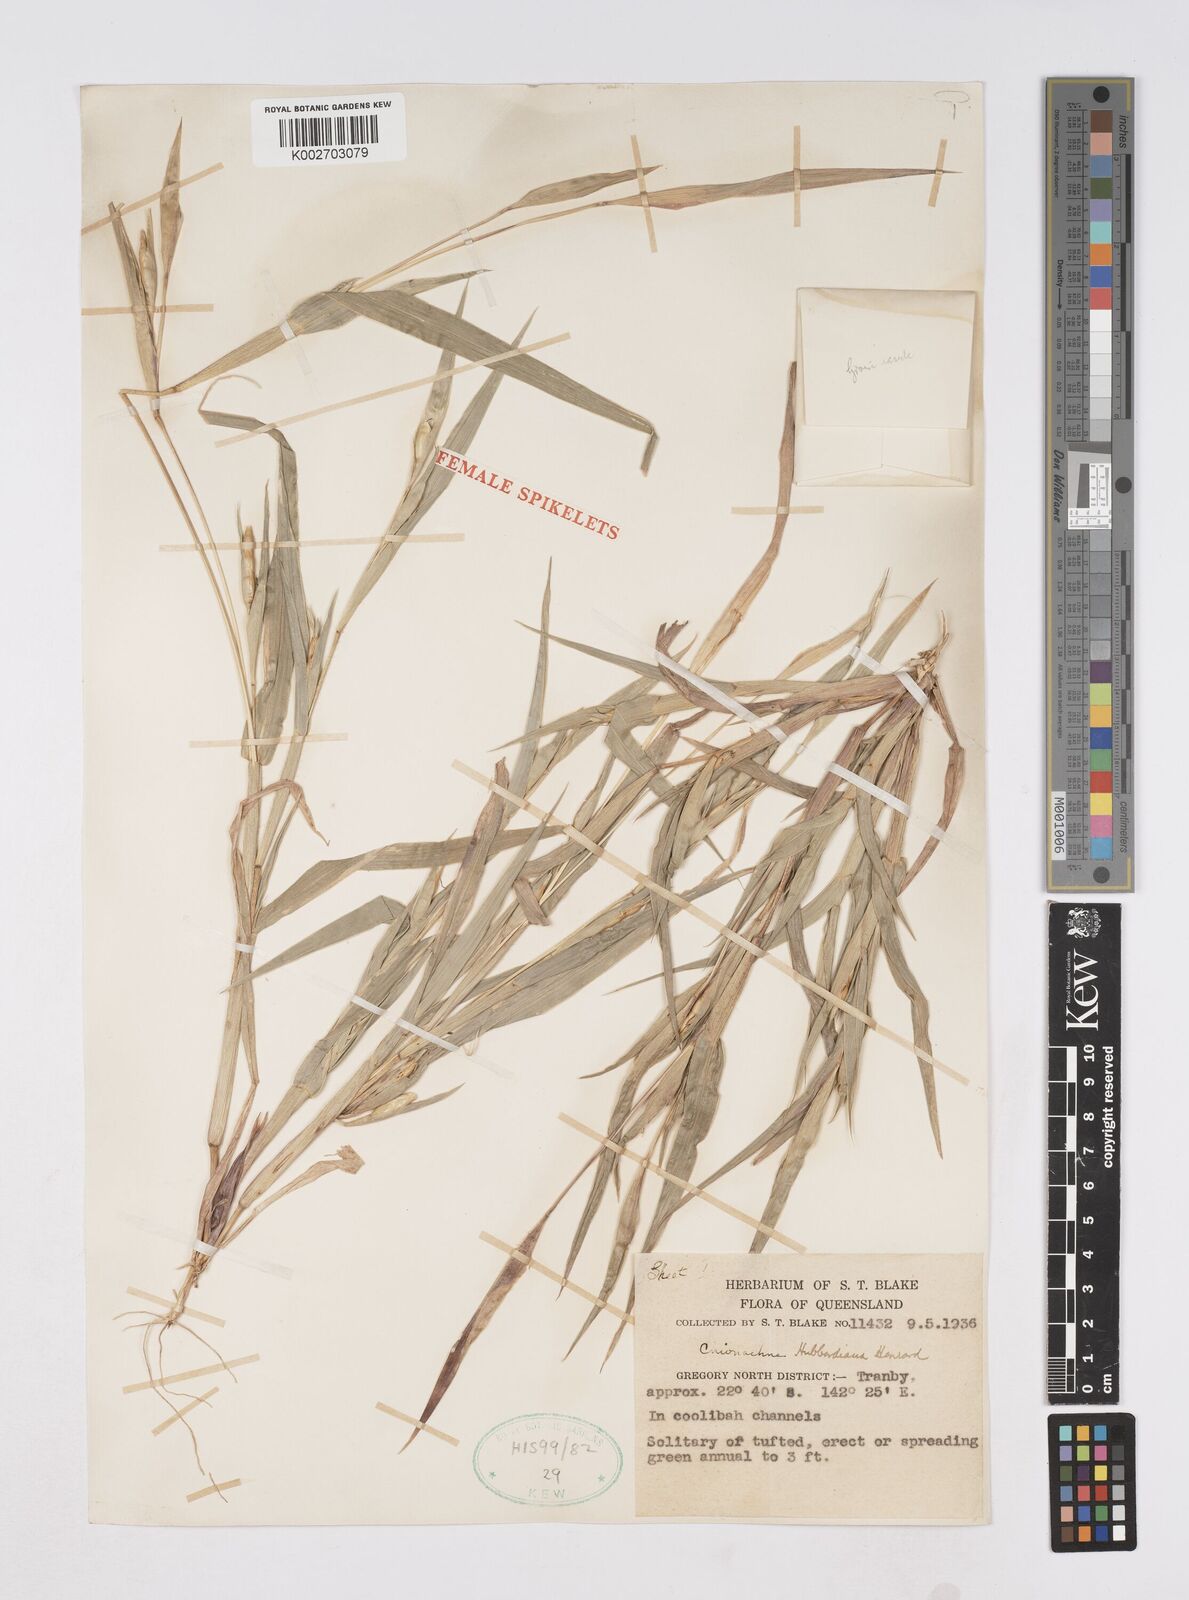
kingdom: Plantae
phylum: Tracheophyta
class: Liliopsida
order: Poales
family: Poaceae
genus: Polytoca
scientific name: Polytoca hubbardiana
